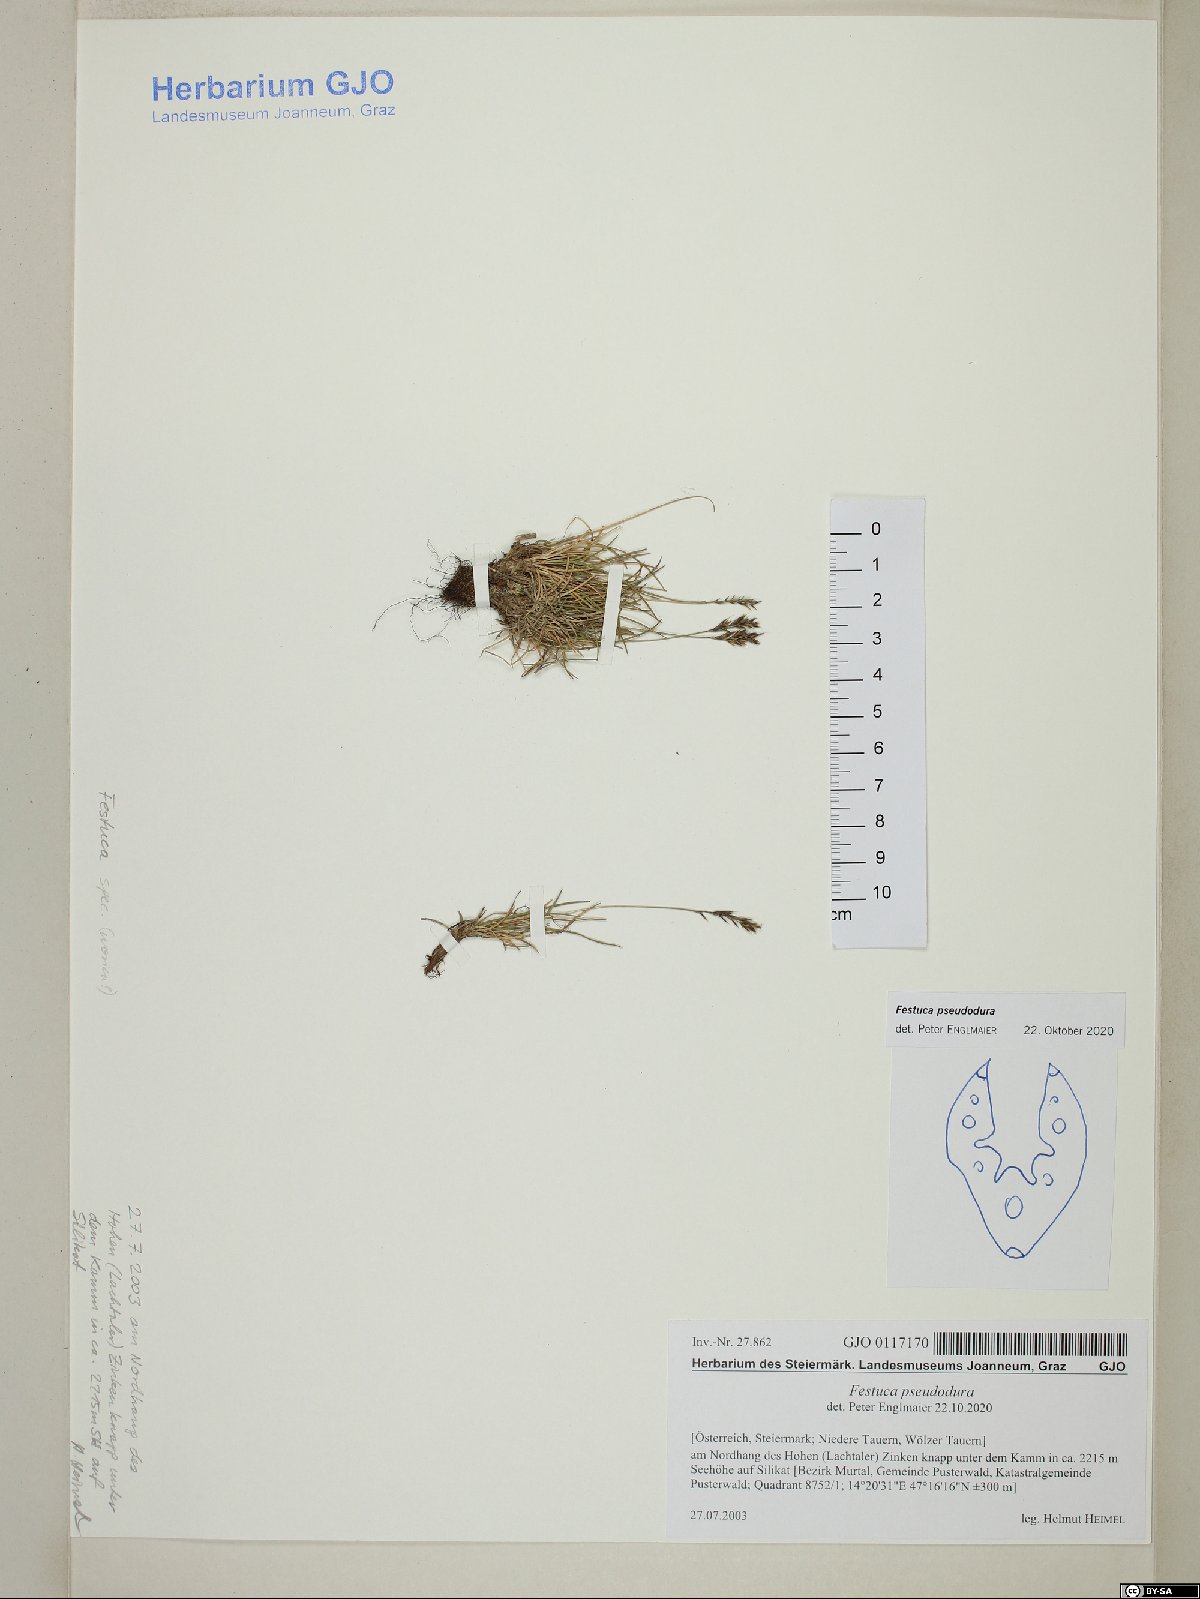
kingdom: Plantae
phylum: Tracheophyta
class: Liliopsida
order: Poales
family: Poaceae
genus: Festuca
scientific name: Festuca pseudodura
